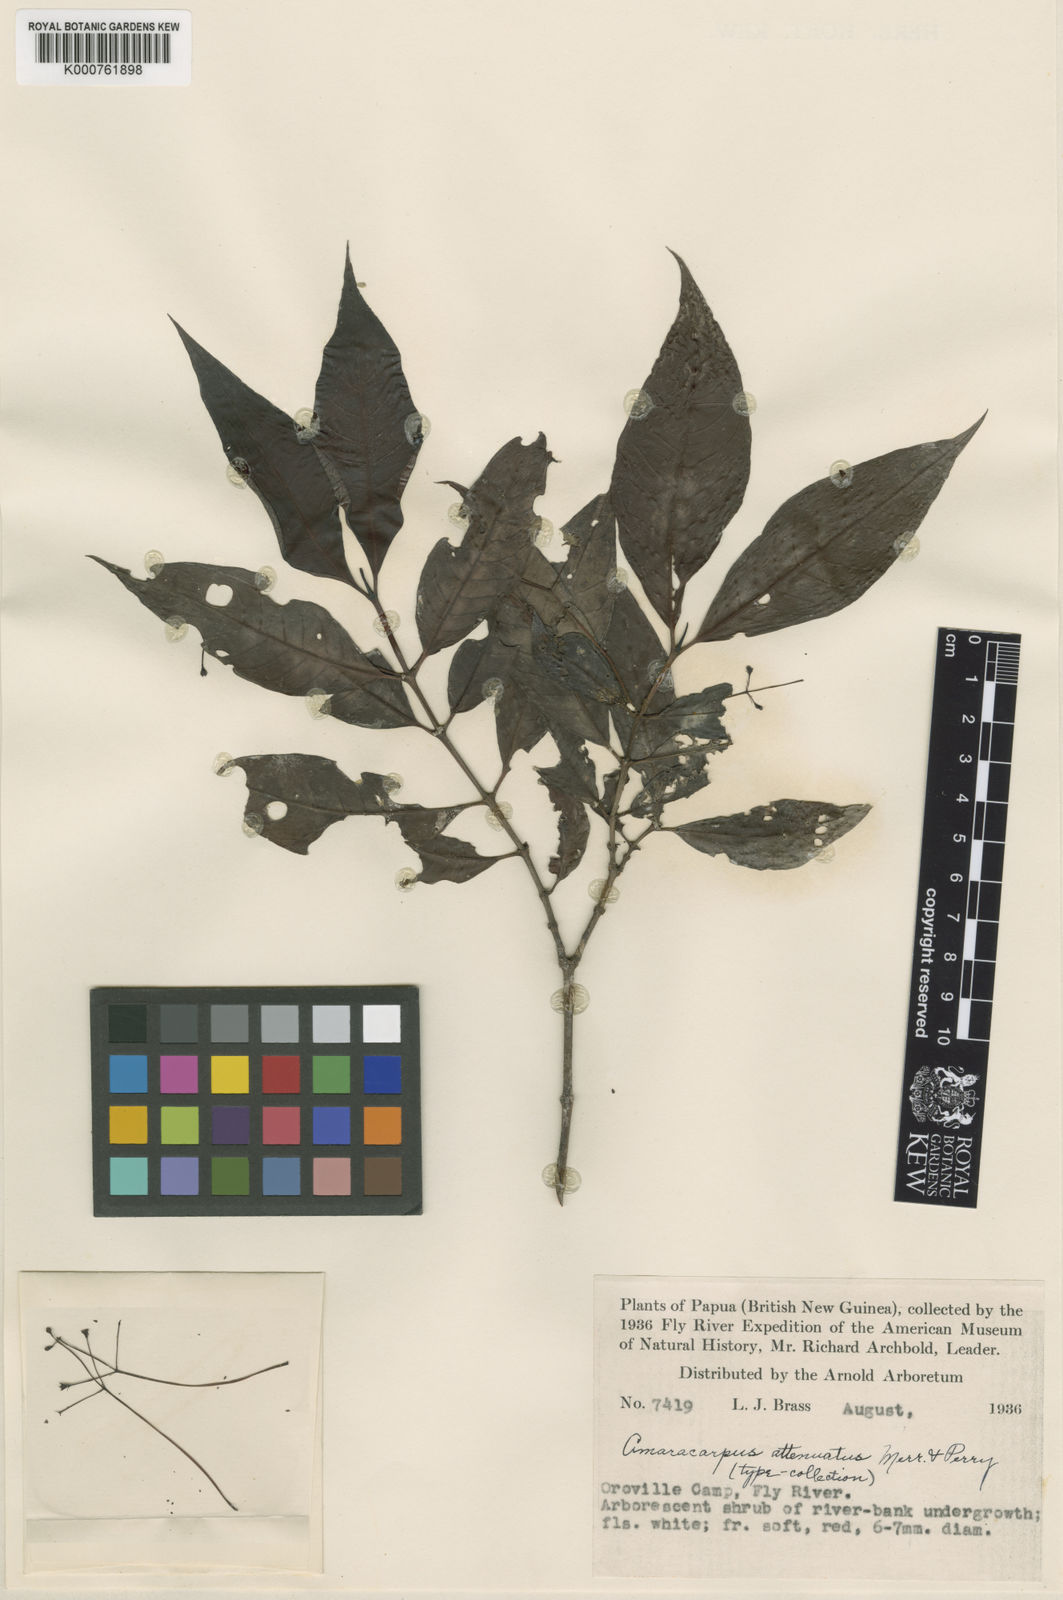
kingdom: Plantae
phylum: Tracheophyta
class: Magnoliopsida
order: Gentianales
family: Rubiaceae
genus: Amaracarpus
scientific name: Amaracarpus attenuatus
